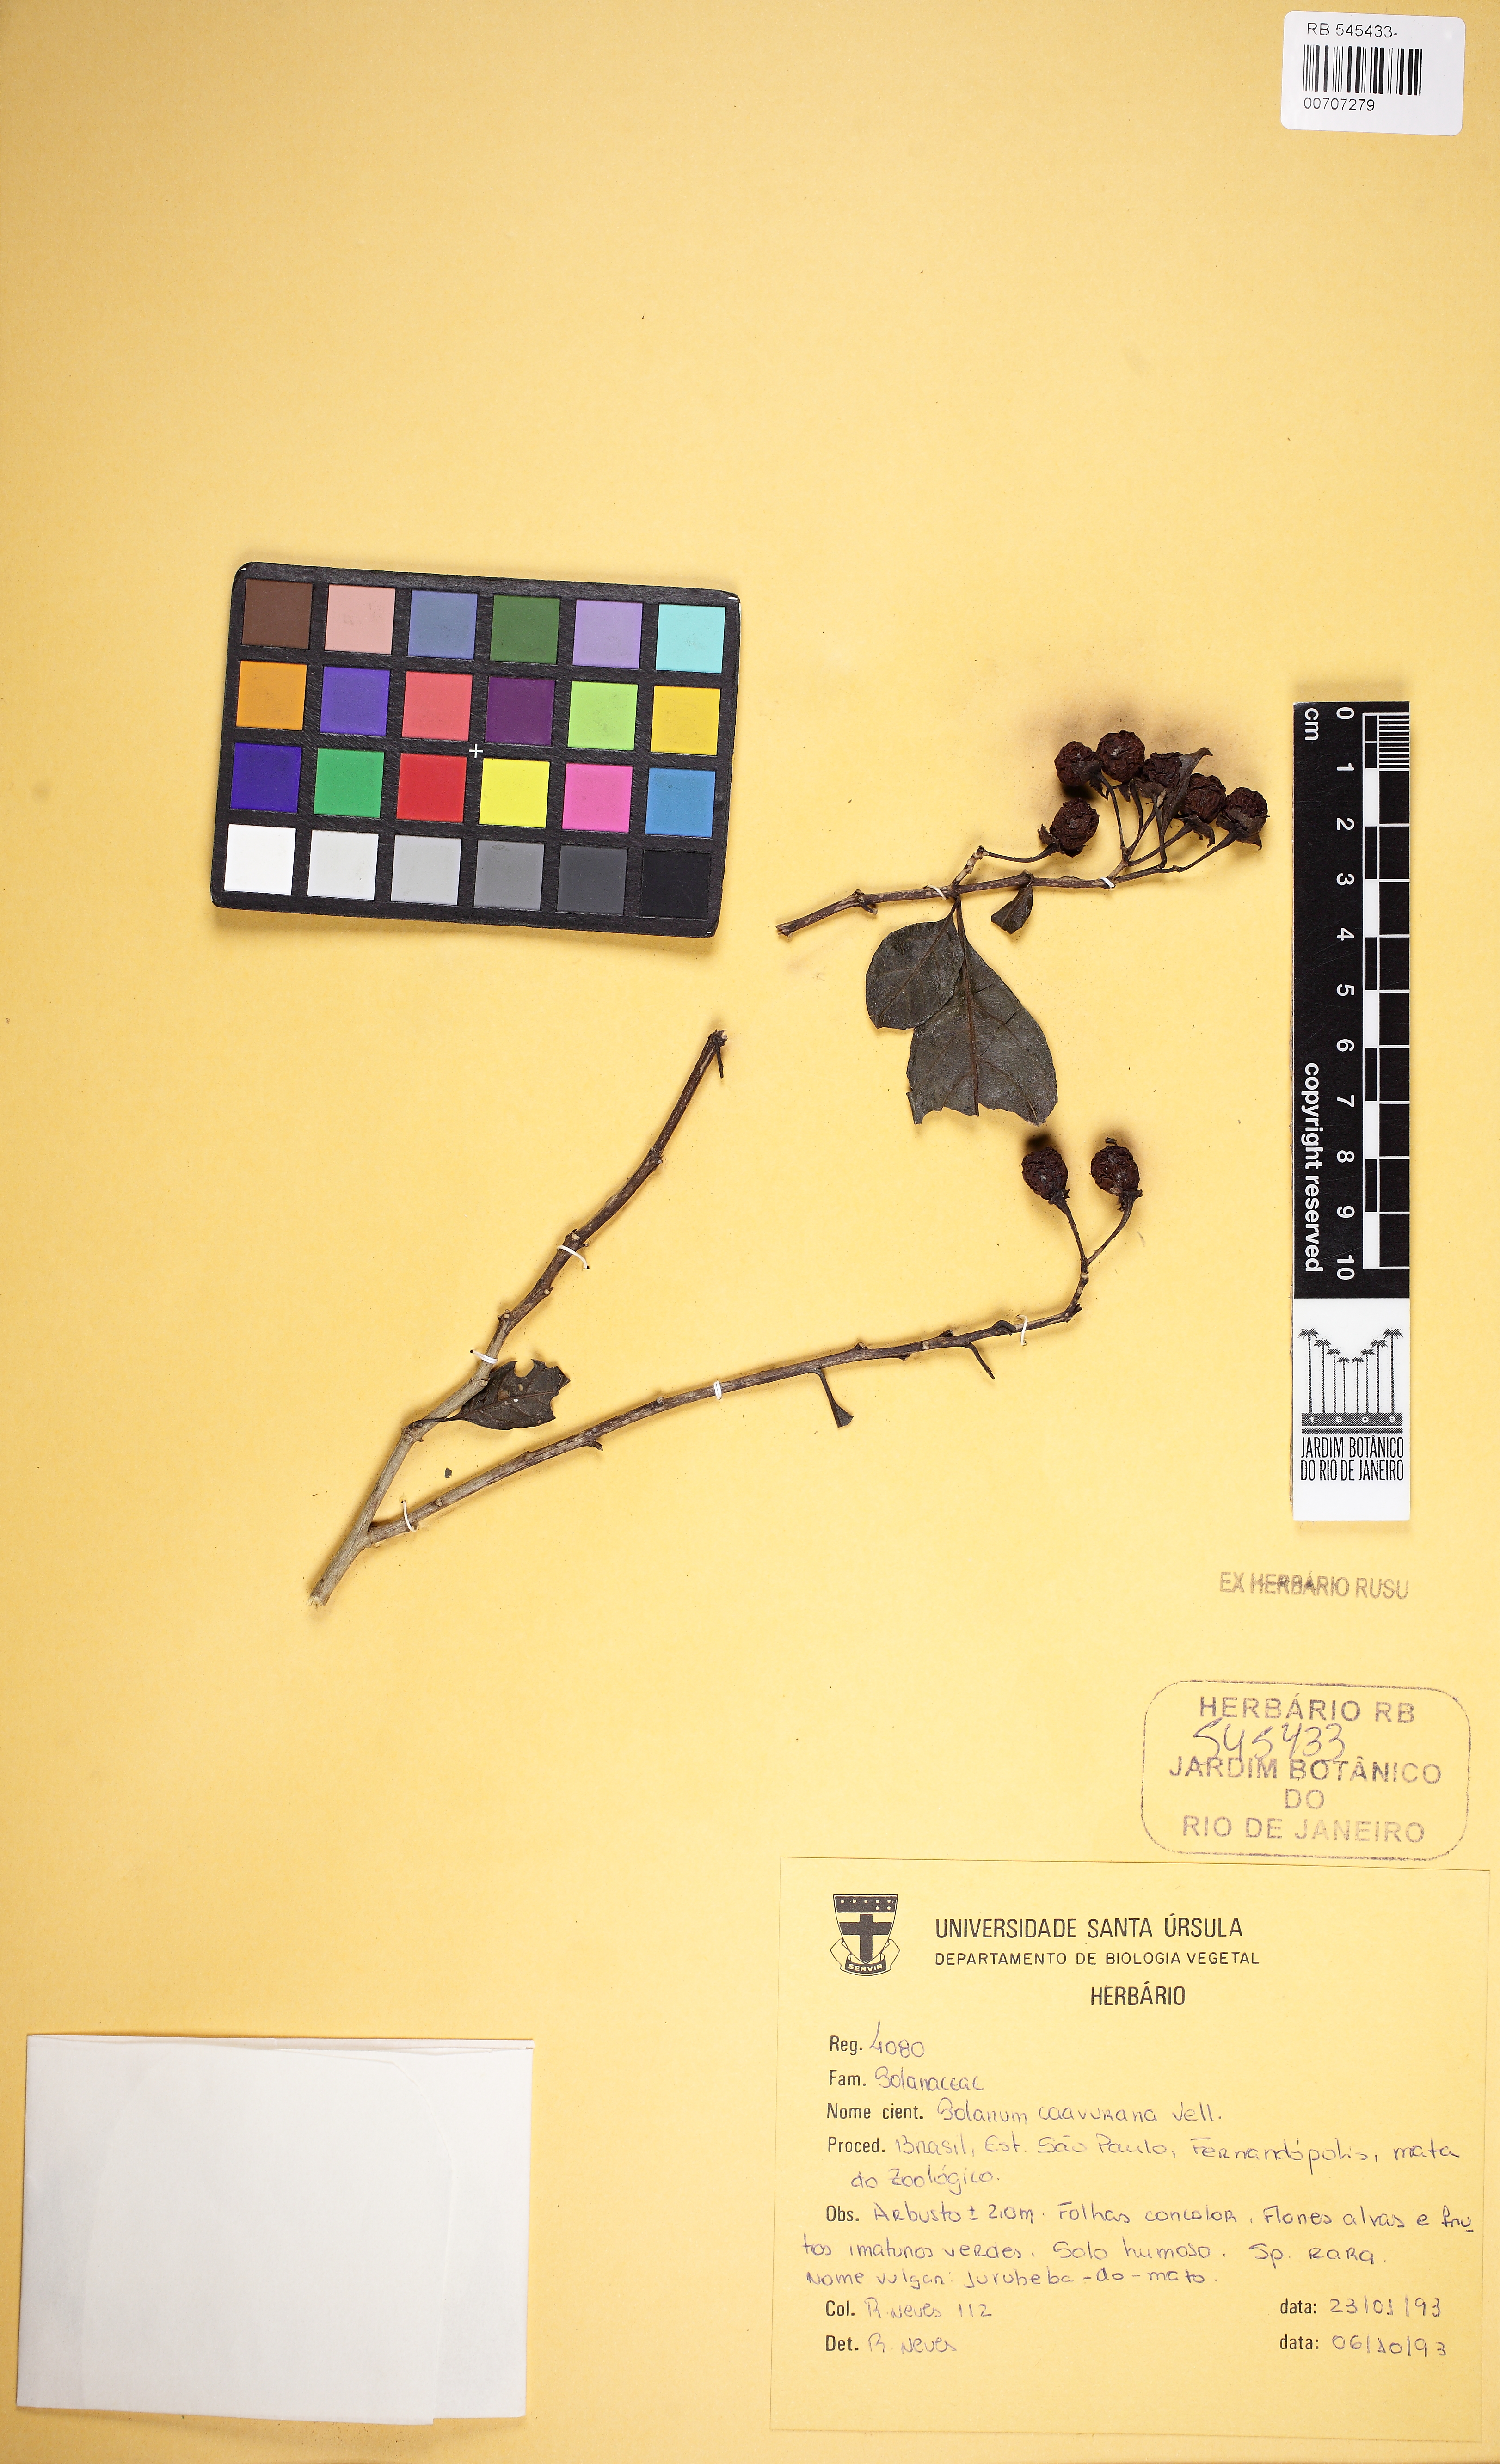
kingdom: Plantae
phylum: Tracheophyta
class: Magnoliopsida
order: Solanales
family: Solanaceae
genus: Solanum
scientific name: Solanum caavurana
